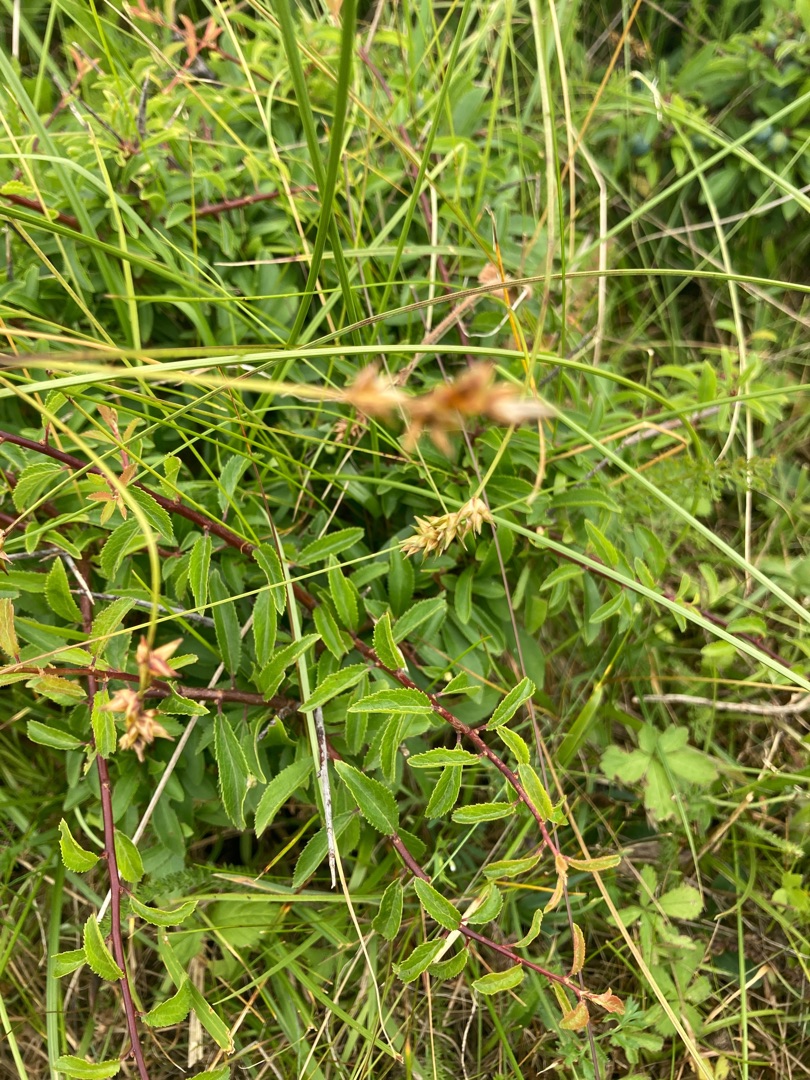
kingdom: Plantae
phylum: Tracheophyta
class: Liliopsida
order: Poales
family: Cyperaceae
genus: Carex
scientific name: Carex spicata
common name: Spidskapslet star
